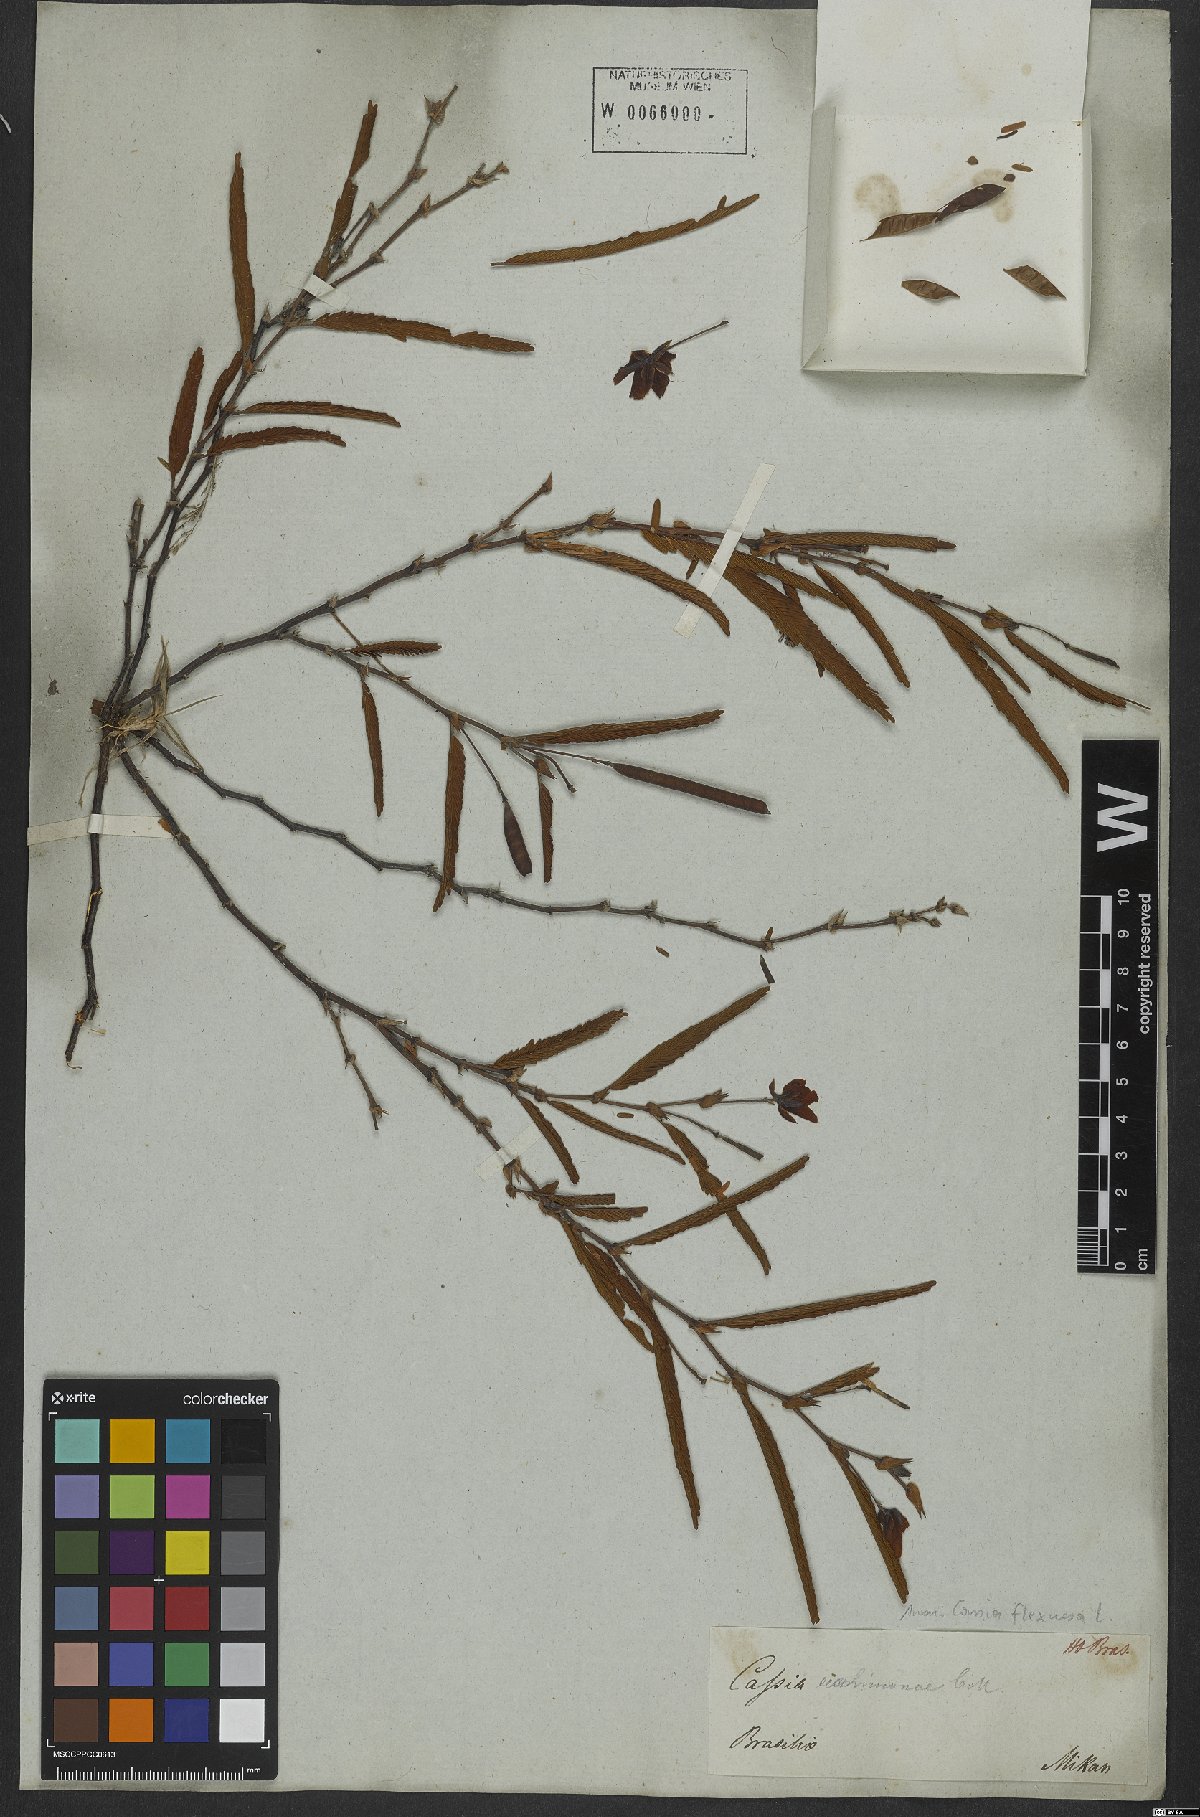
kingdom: Plantae
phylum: Tracheophyta
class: Magnoliopsida
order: Fabales
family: Fabaceae
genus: Chamaecrista
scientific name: Chamaecrista flexuosa
